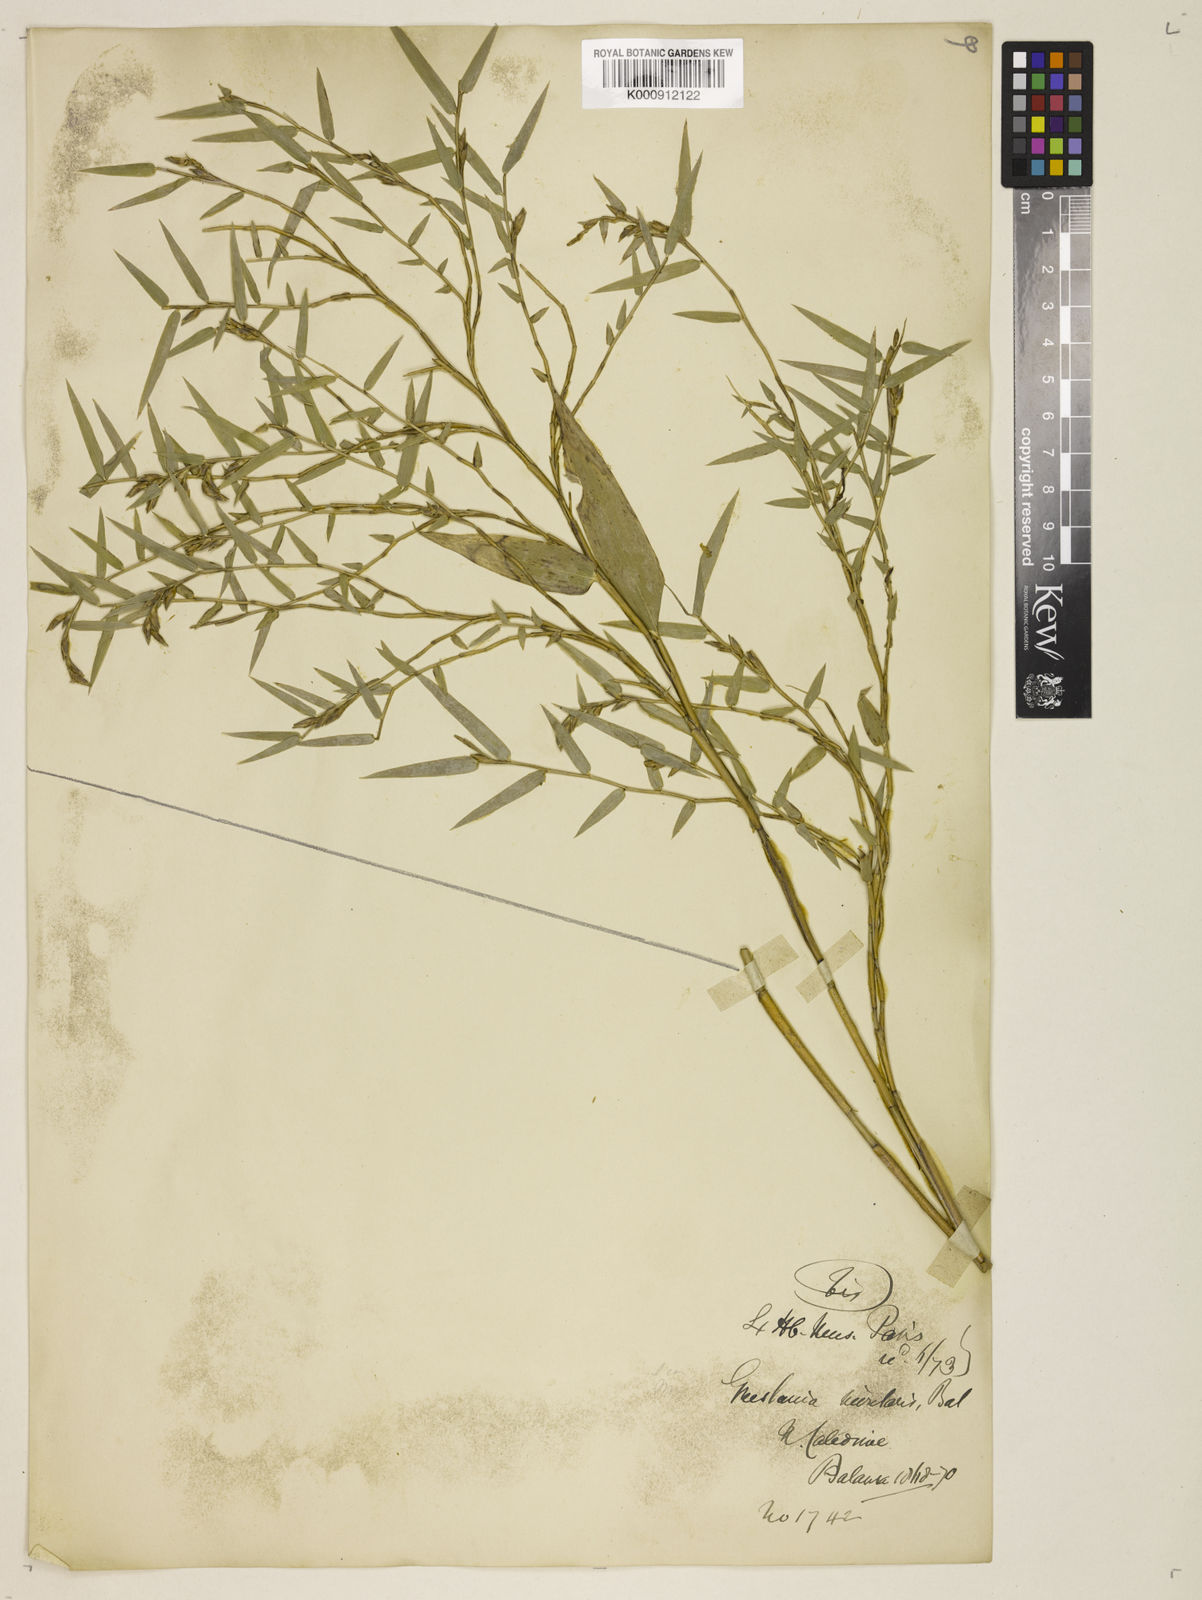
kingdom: Plantae
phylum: Tracheophyta
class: Liliopsida
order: Poales
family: Poaceae
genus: Greslania
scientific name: Greslania rivularis
